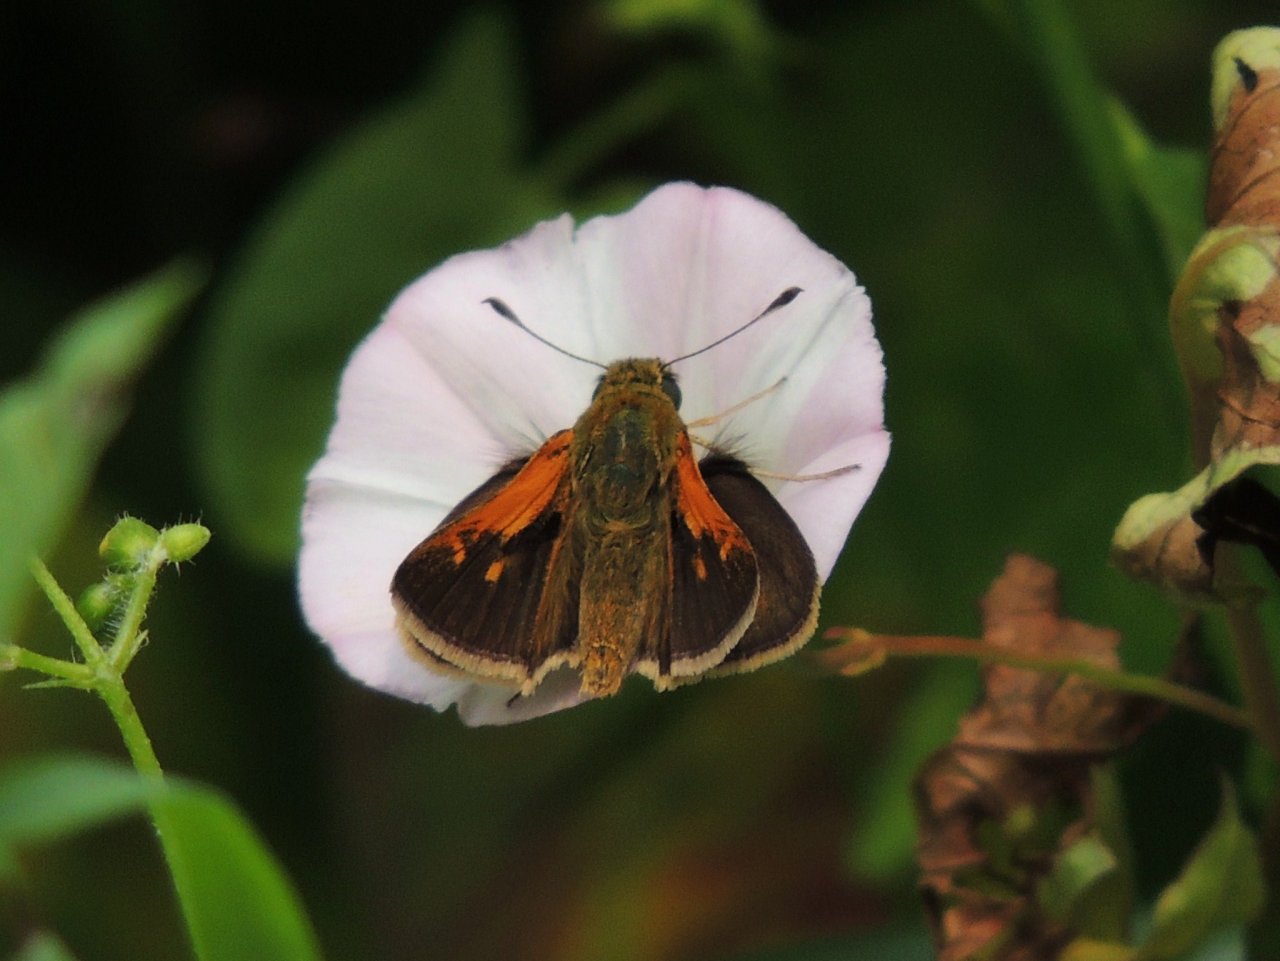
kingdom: Animalia
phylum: Arthropoda
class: Insecta
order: Lepidoptera
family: Hesperiidae
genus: Polites
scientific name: Polites themistocles
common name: Tawny-edged Skipper
